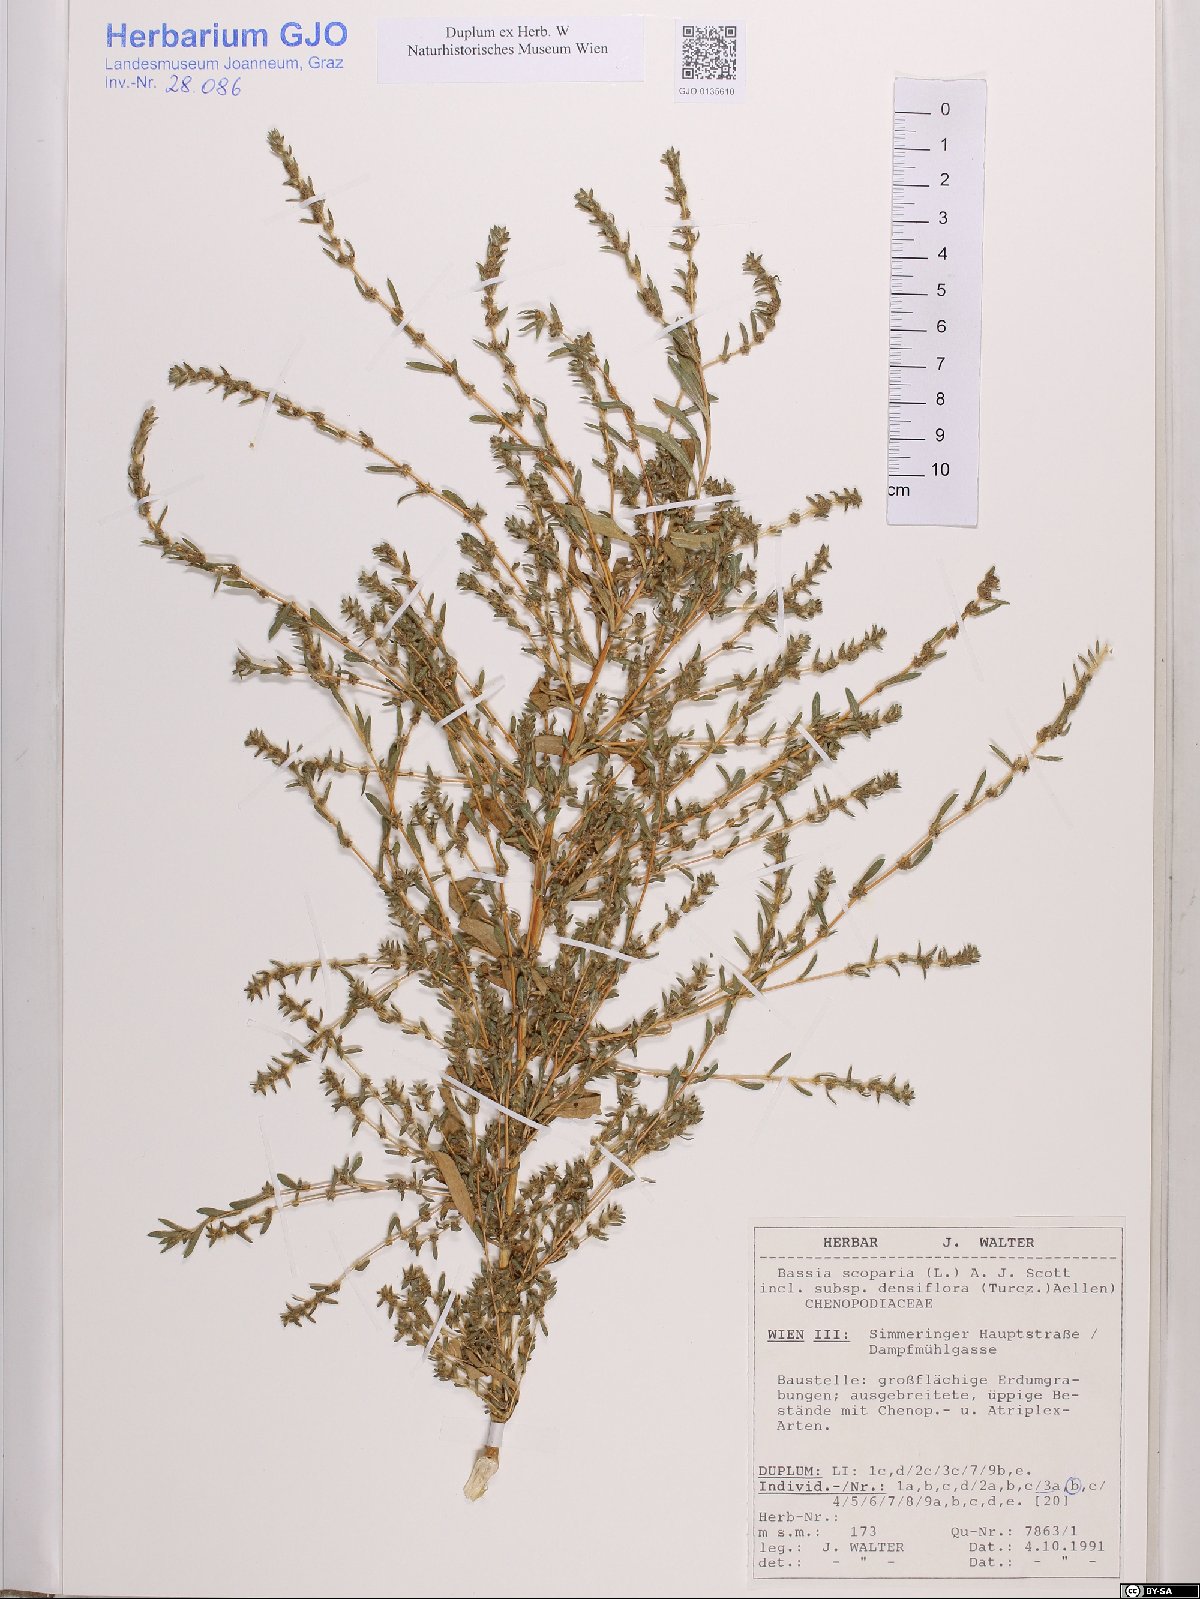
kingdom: Plantae
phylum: Tracheophyta
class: Magnoliopsida
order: Caryophyllales
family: Amaranthaceae
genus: Bassia
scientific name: Bassia scoparia
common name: Belvedere
